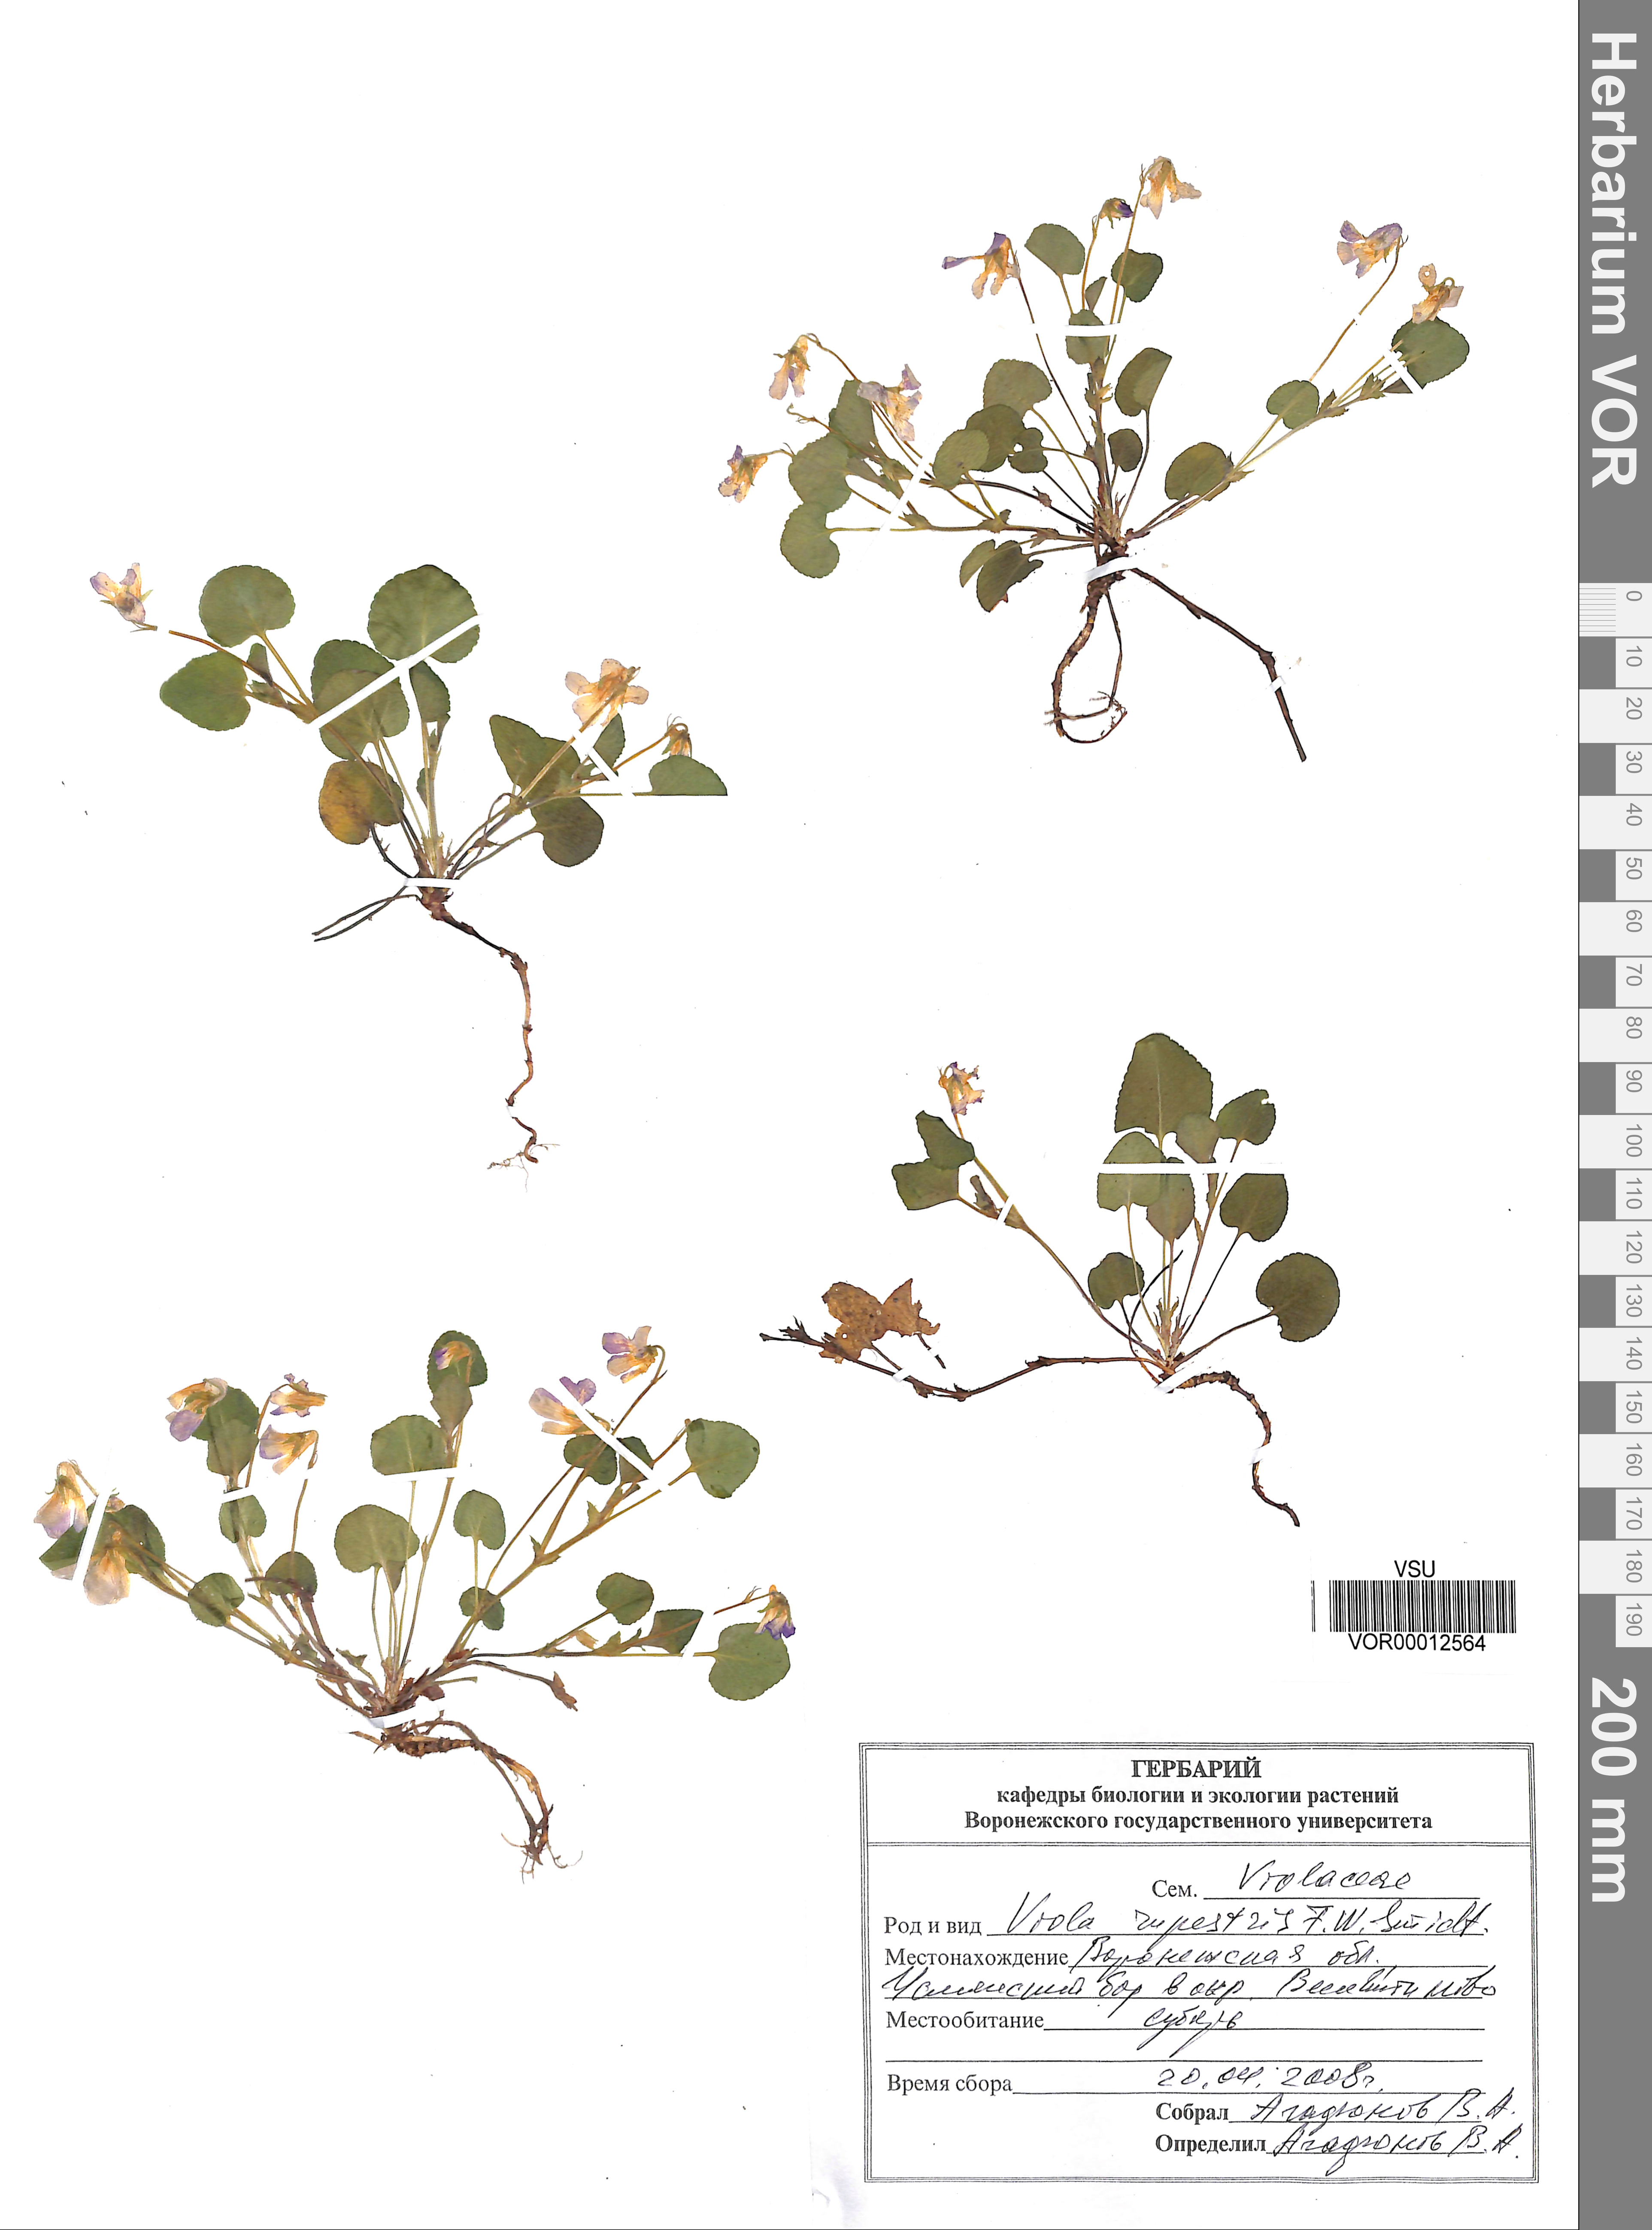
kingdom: Plantae
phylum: Tracheophyta
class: Magnoliopsida
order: Malpighiales
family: Violaceae
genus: Viola
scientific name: Viola rupestris
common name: Teesdale violet
